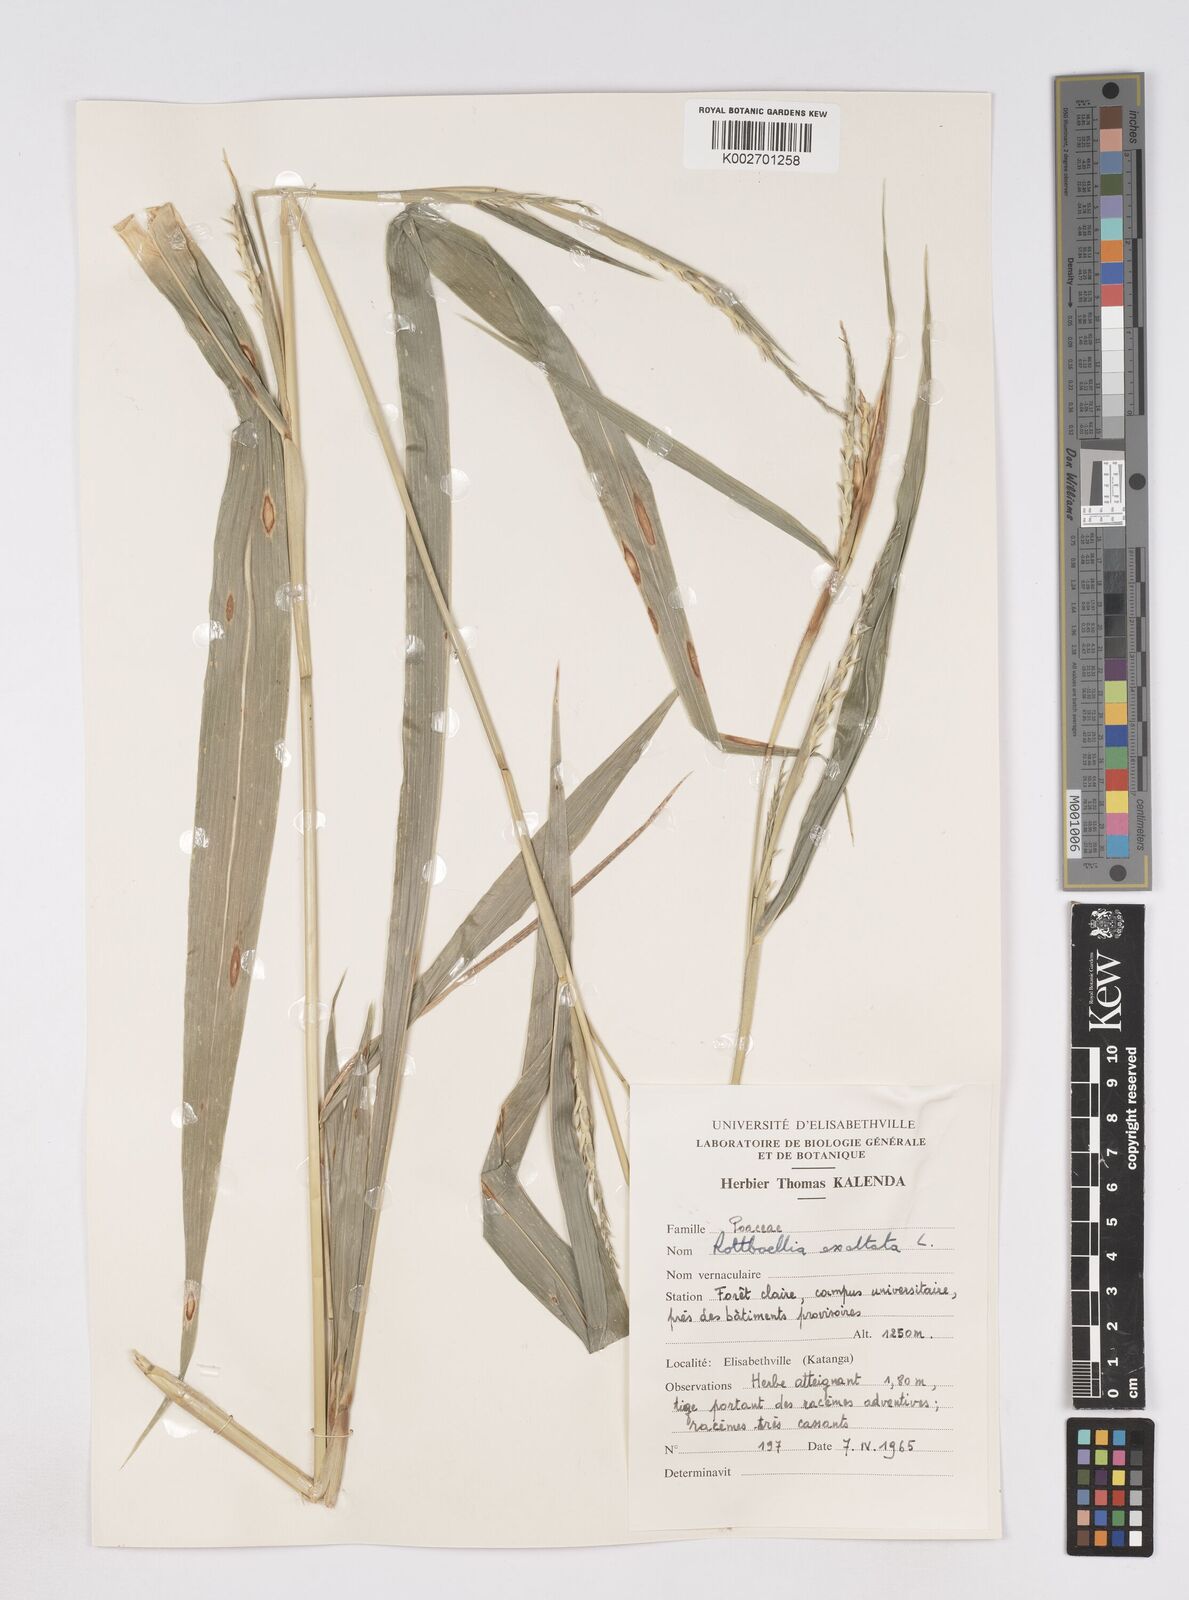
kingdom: Plantae
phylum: Tracheophyta
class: Liliopsida
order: Poales
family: Poaceae
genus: Rottboellia
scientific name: Rottboellia
